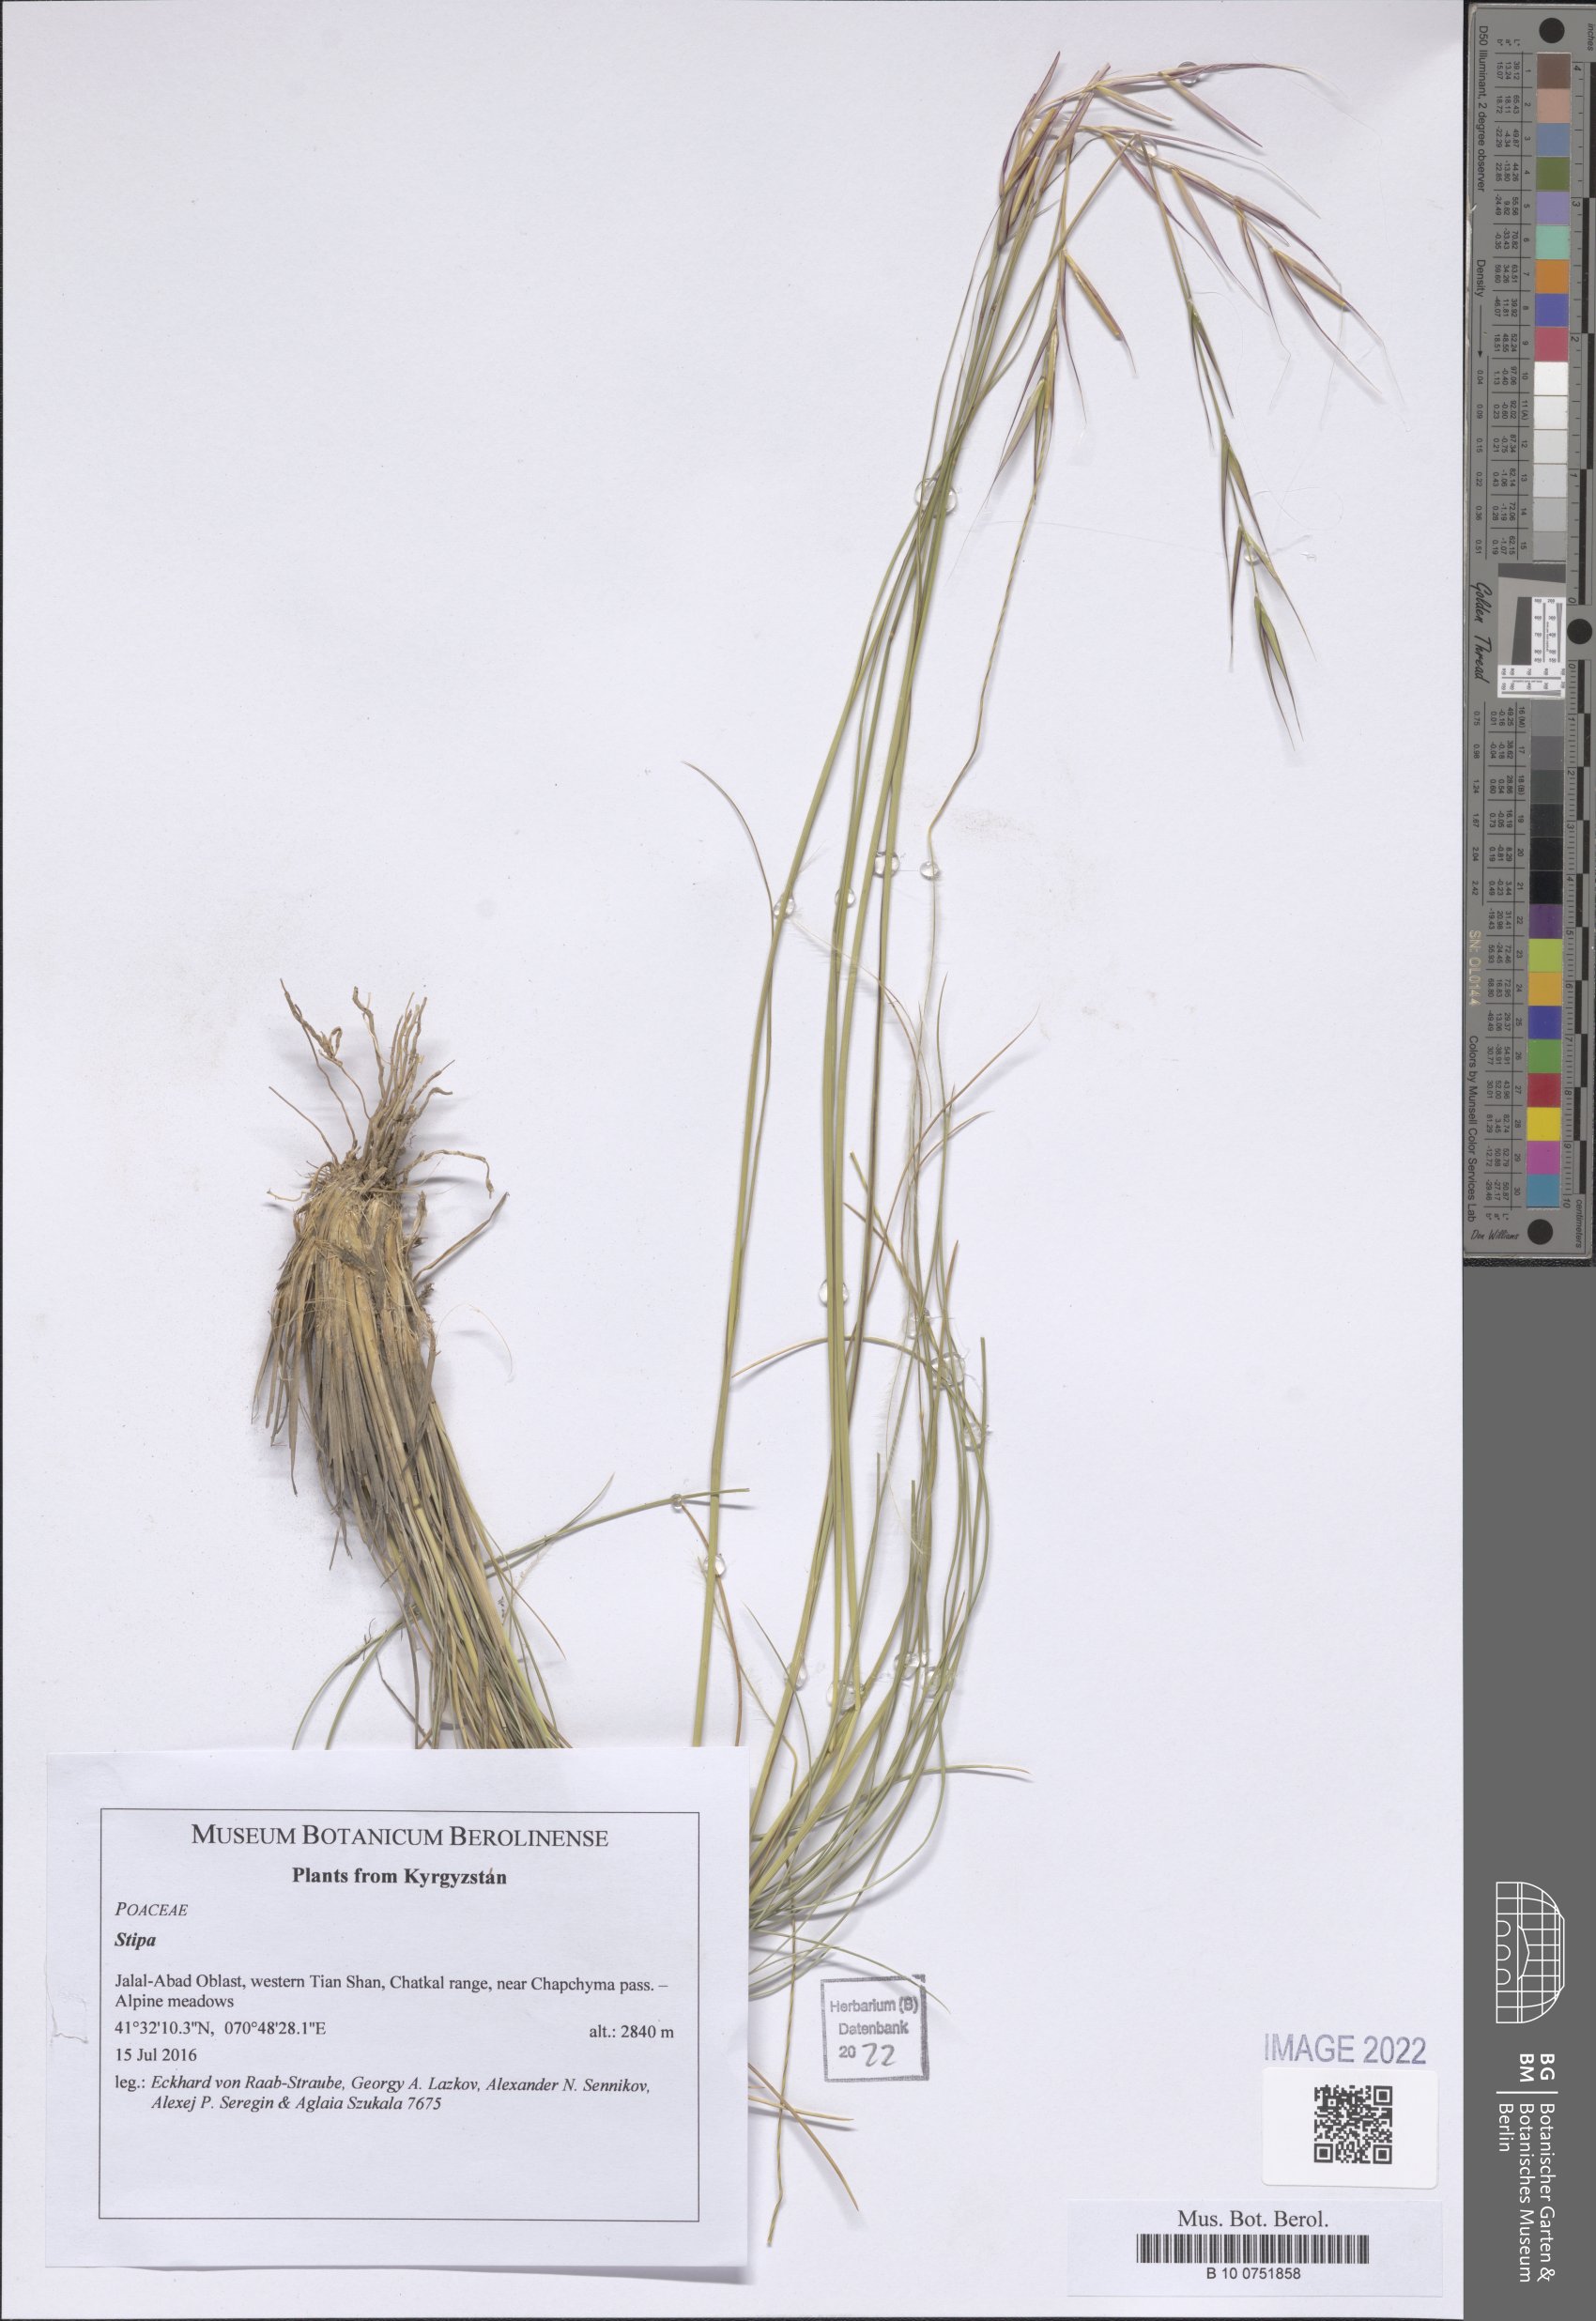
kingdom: Plantae
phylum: Tracheophyta
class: Liliopsida
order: Poales
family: Poaceae
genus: Stipa
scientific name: Stipa
